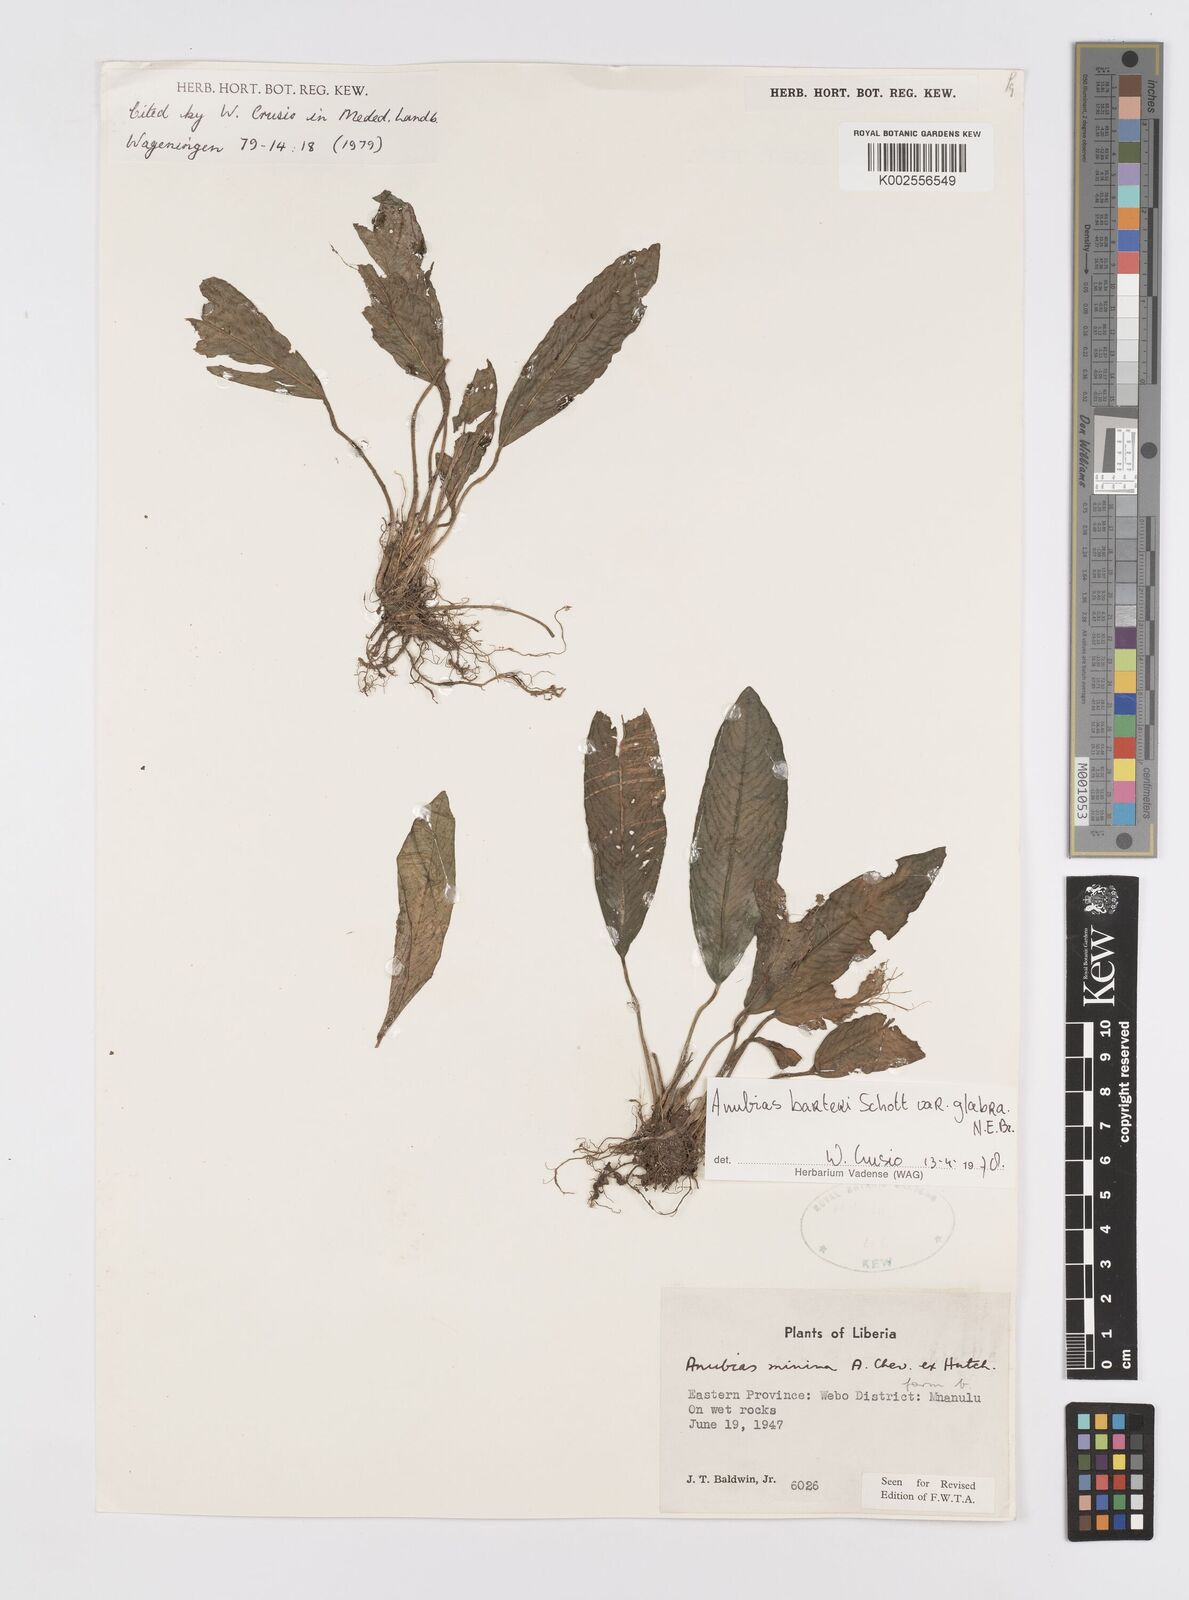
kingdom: Plantae
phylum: Tracheophyta
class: Liliopsida
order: Alismatales
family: Araceae
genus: Anubias
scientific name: Anubias barteri
